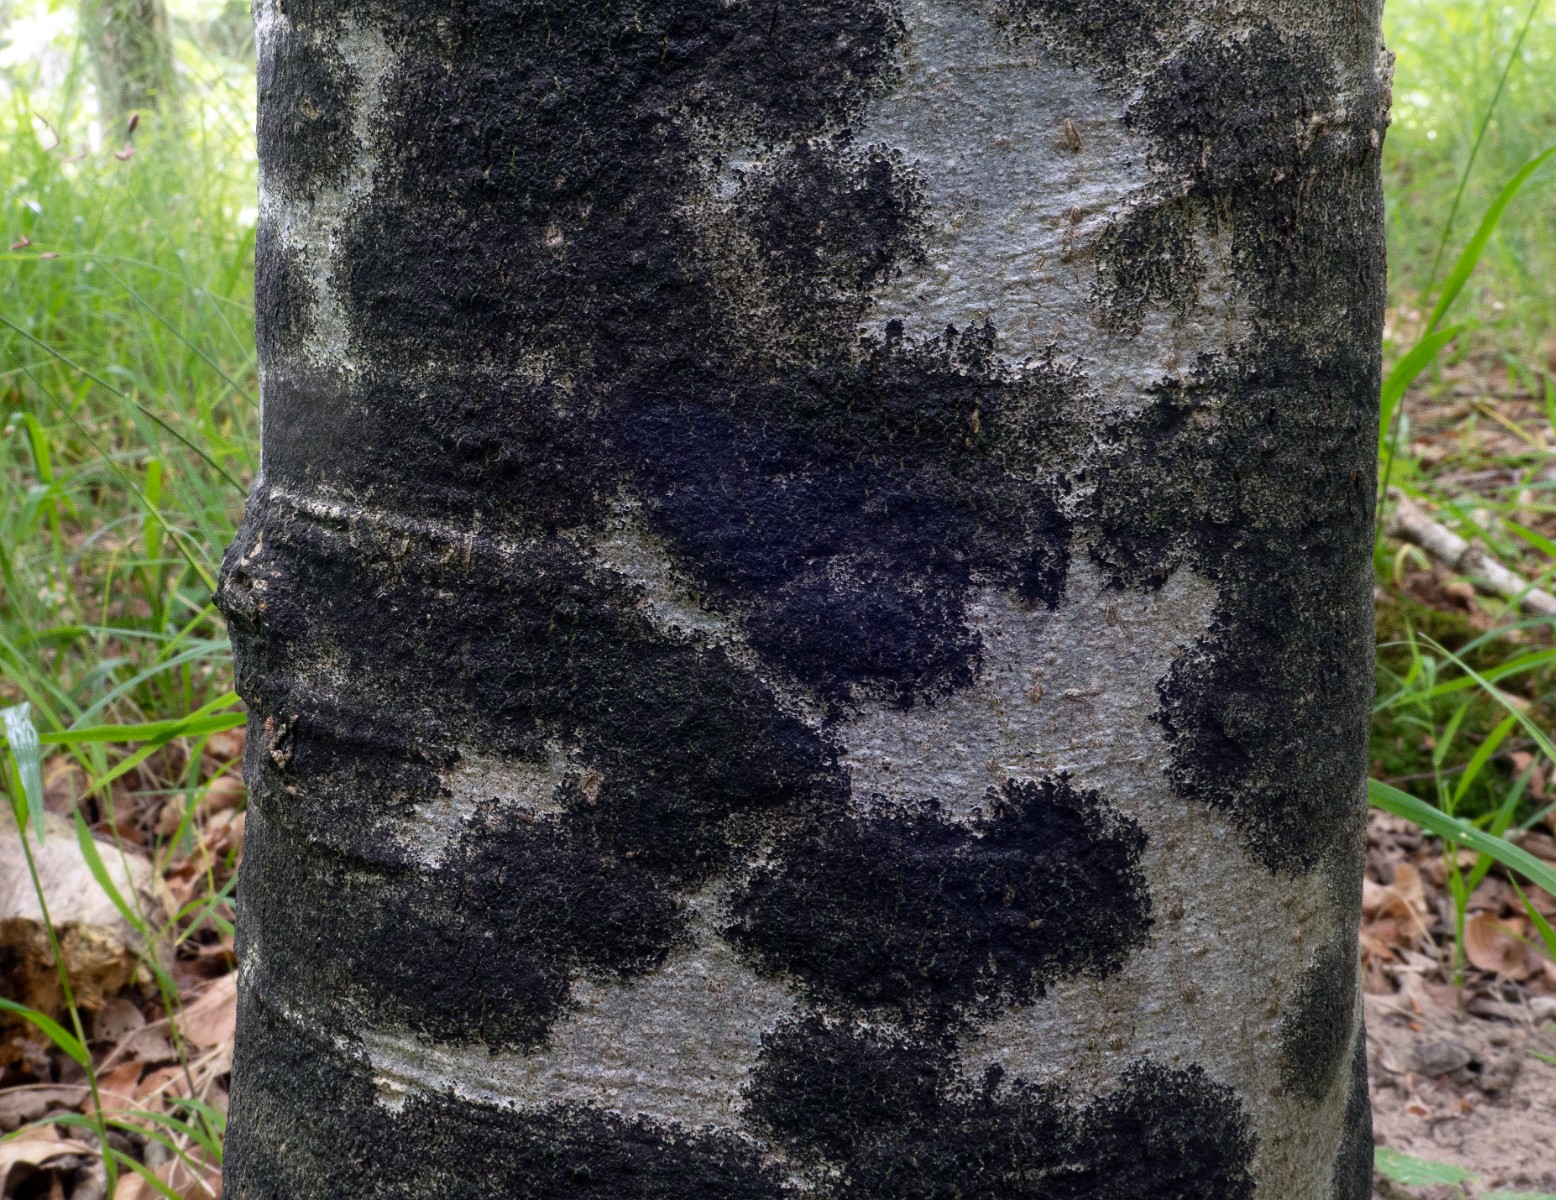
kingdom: Fungi
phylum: Ascomycota
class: Leotiomycetes
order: Rhytismatales
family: Ascodichaenaceae
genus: Ascodichaena
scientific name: Ascodichaena rugosa
